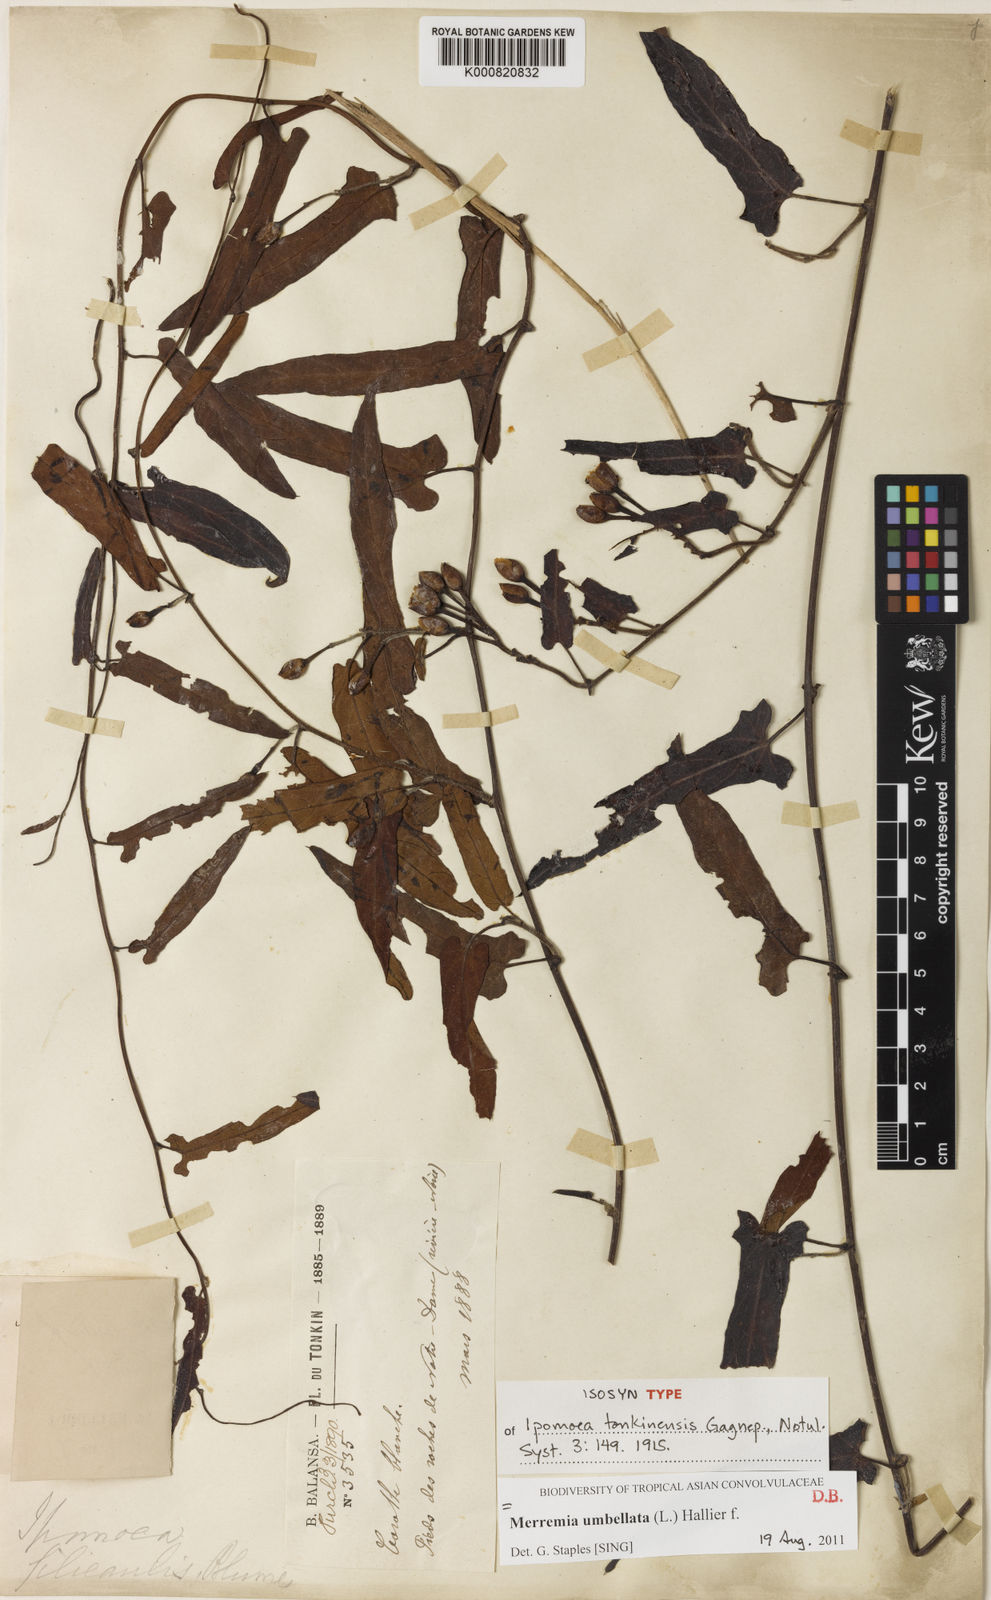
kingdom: Plantae
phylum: Tracheophyta
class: Magnoliopsida
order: Solanales
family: Convolvulaceae
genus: Camonea
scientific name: Camonea umbellata
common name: Hogvine
